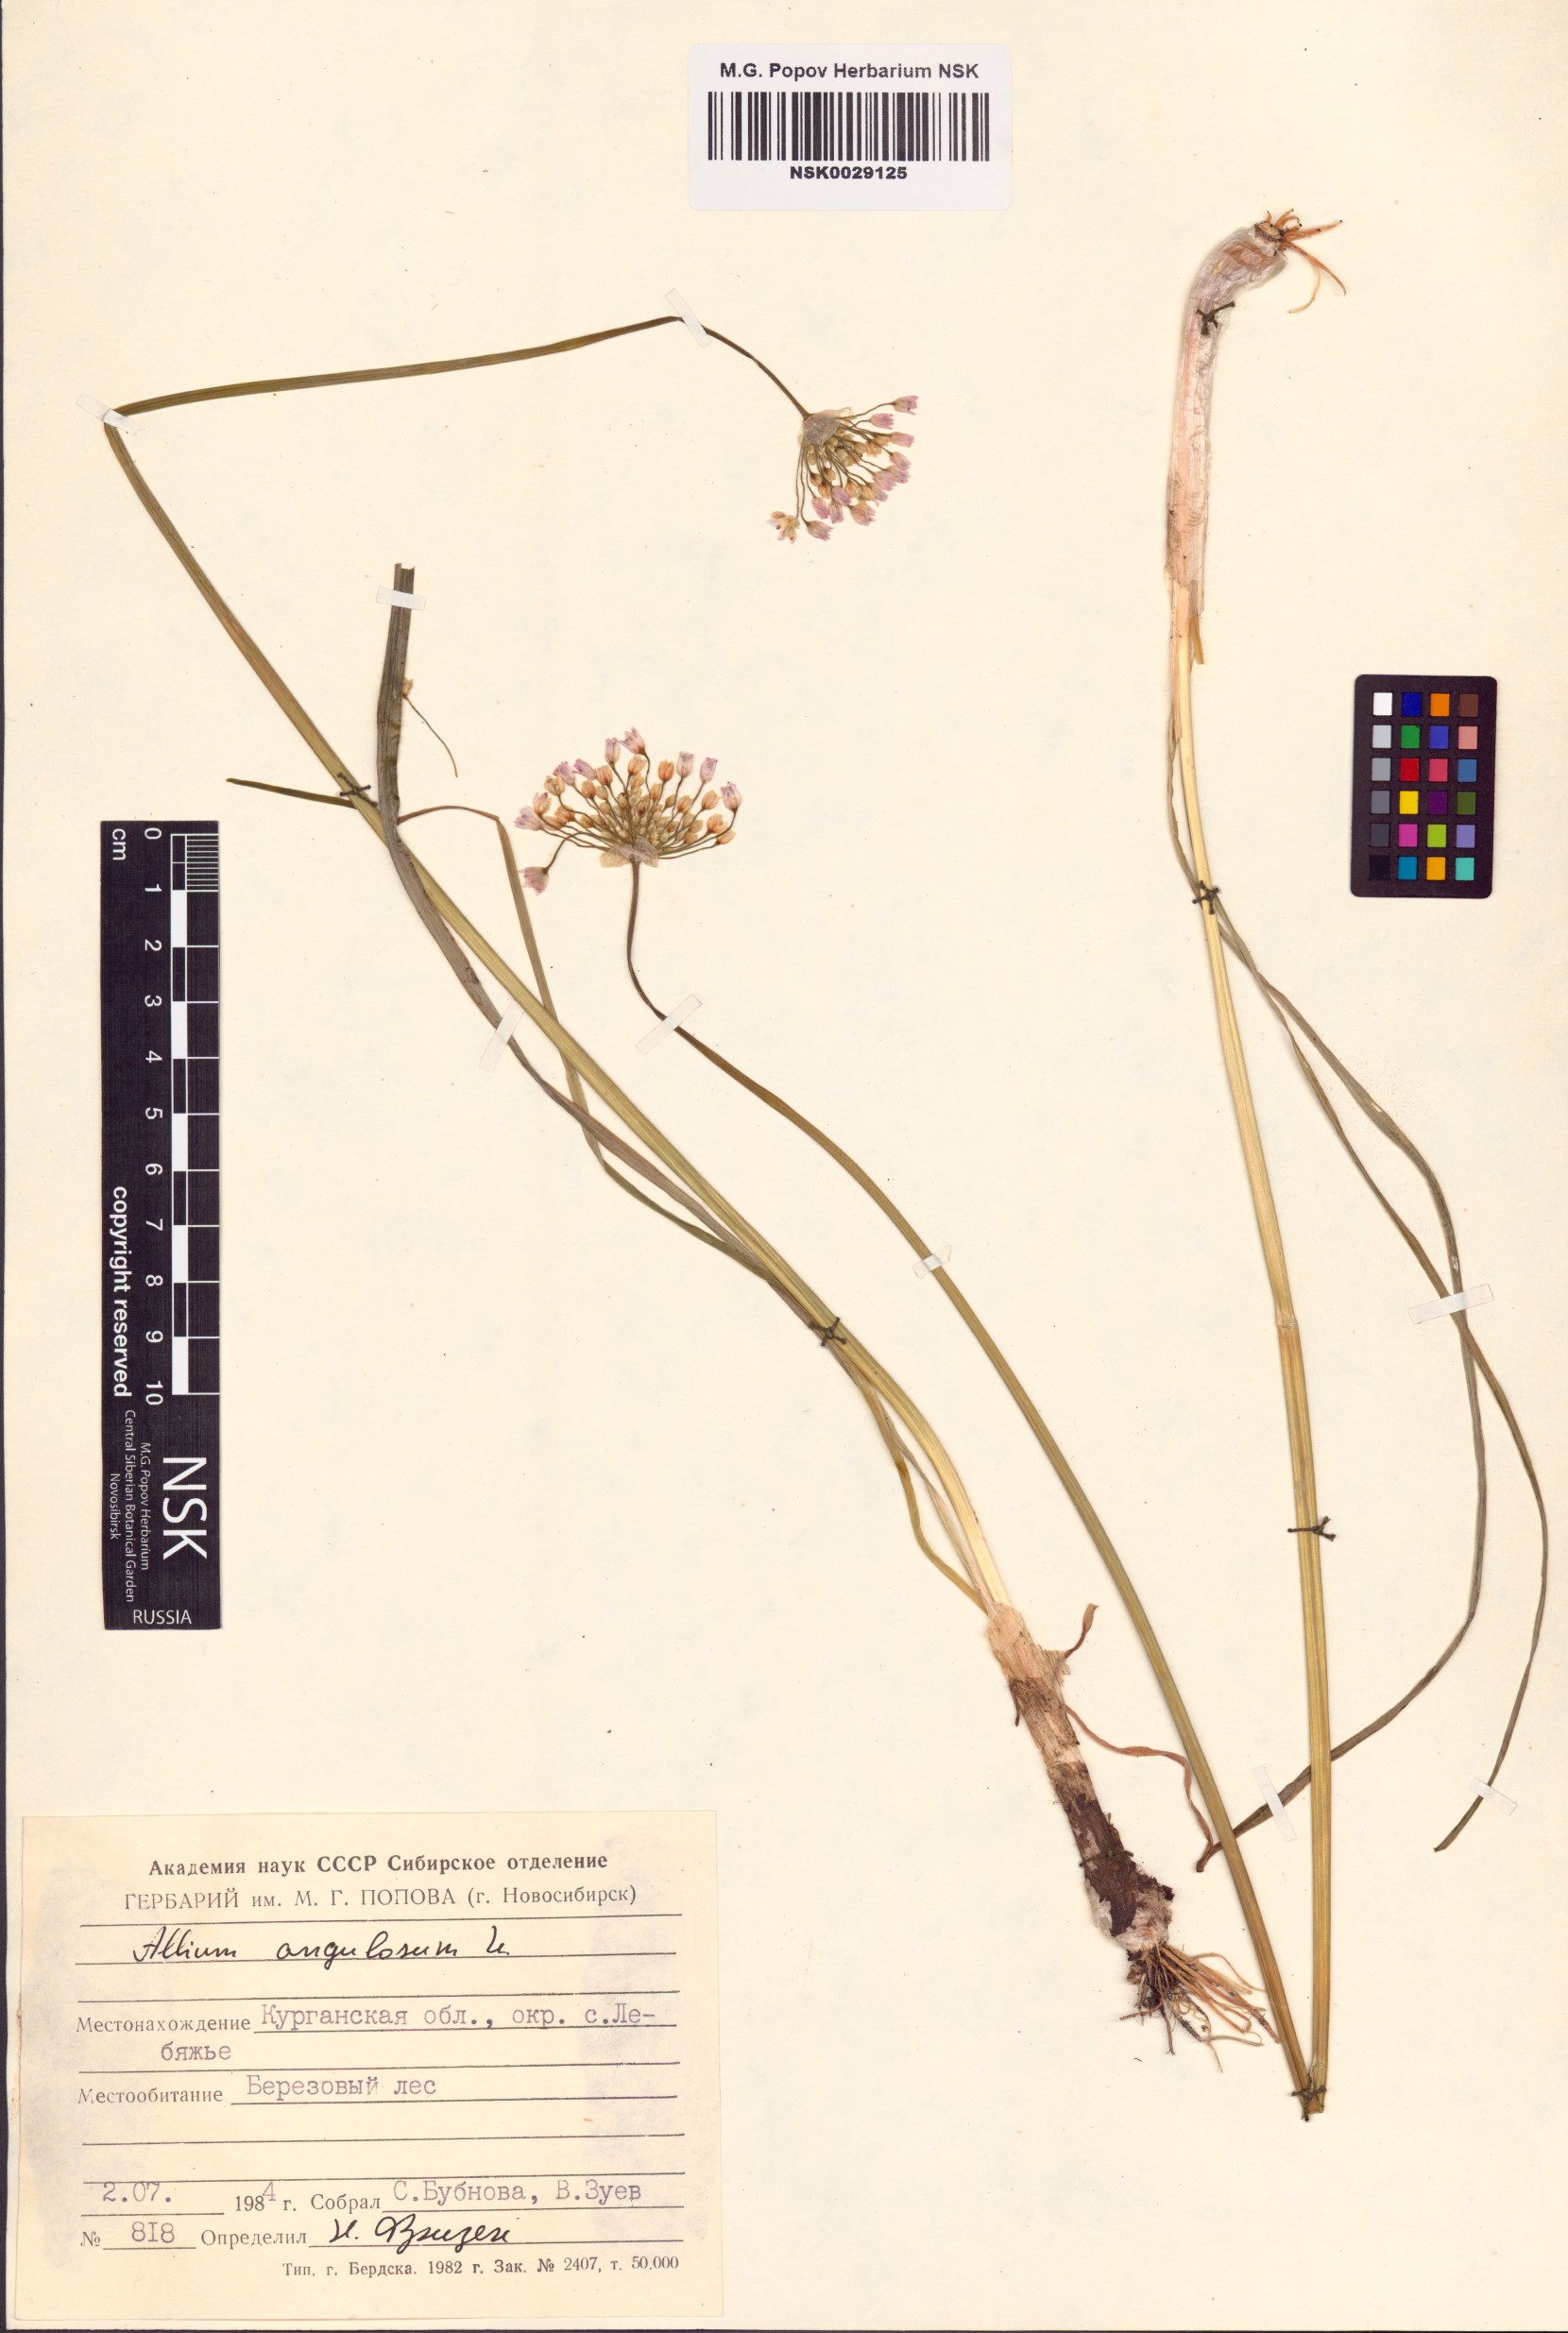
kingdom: Plantae
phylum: Tracheophyta
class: Liliopsida
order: Asparagales
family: Amaryllidaceae
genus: Allium
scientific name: Allium angulosum
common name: Mouse garlic
